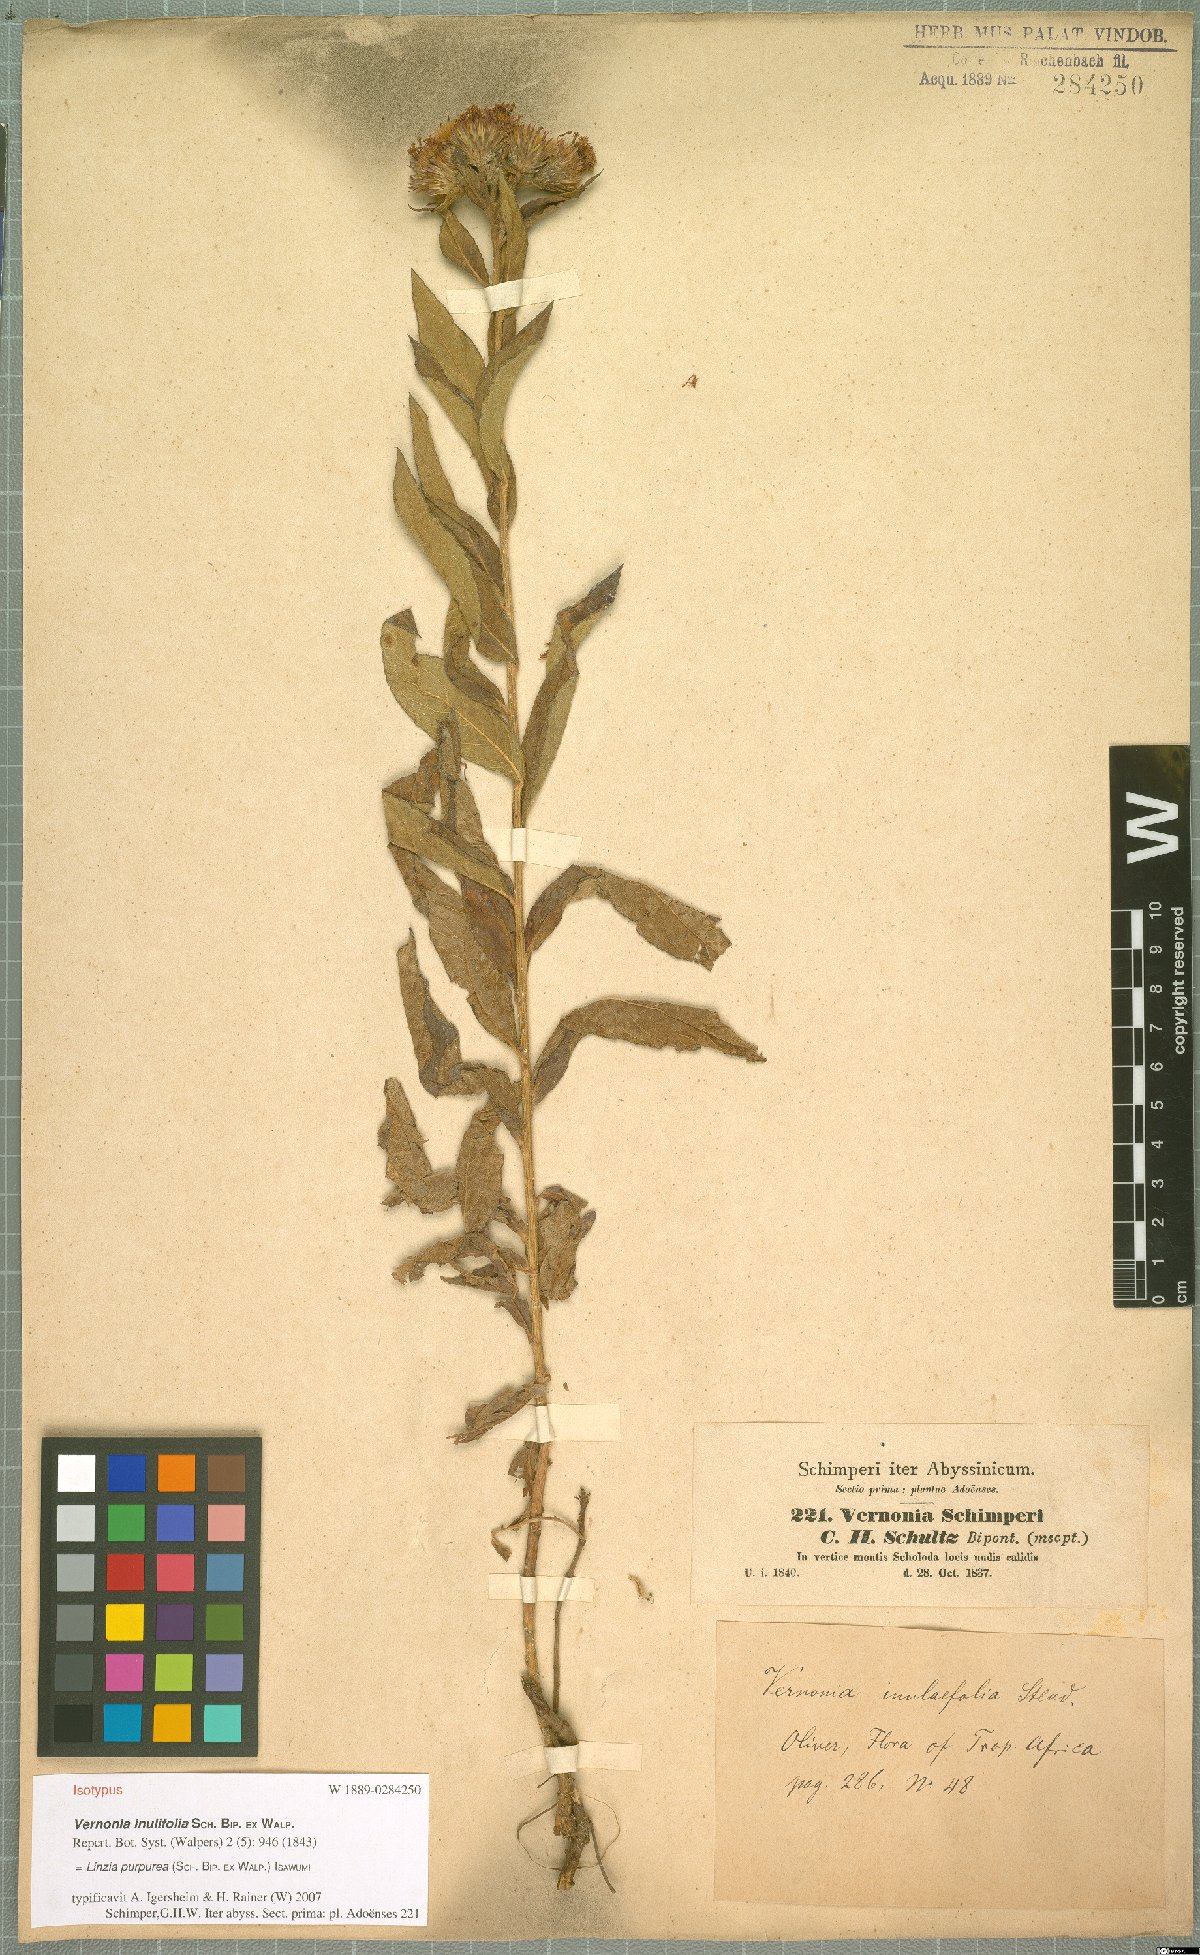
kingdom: Plantae
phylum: Tracheophyta
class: Magnoliopsida
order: Asterales
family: Asteraceae
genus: Nothovernonia
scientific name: Nothovernonia purpurea
